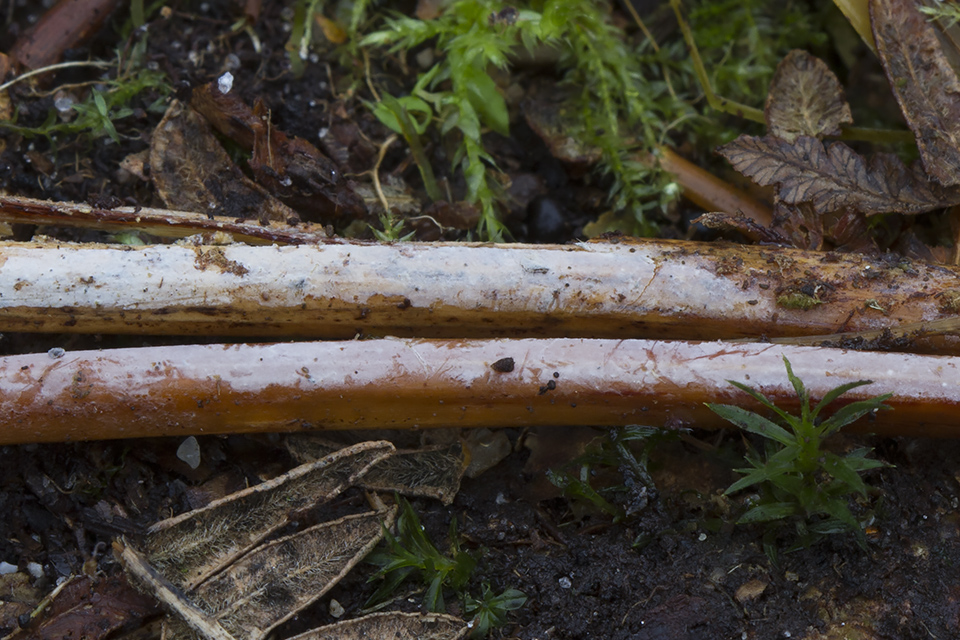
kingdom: Fungi
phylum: Basidiomycota
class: Agaricomycetes
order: Agaricales
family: Radulomycetaceae
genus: Aphanobasidium
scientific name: Aphanobasidium filicinum
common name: bregne-naftalinskind
